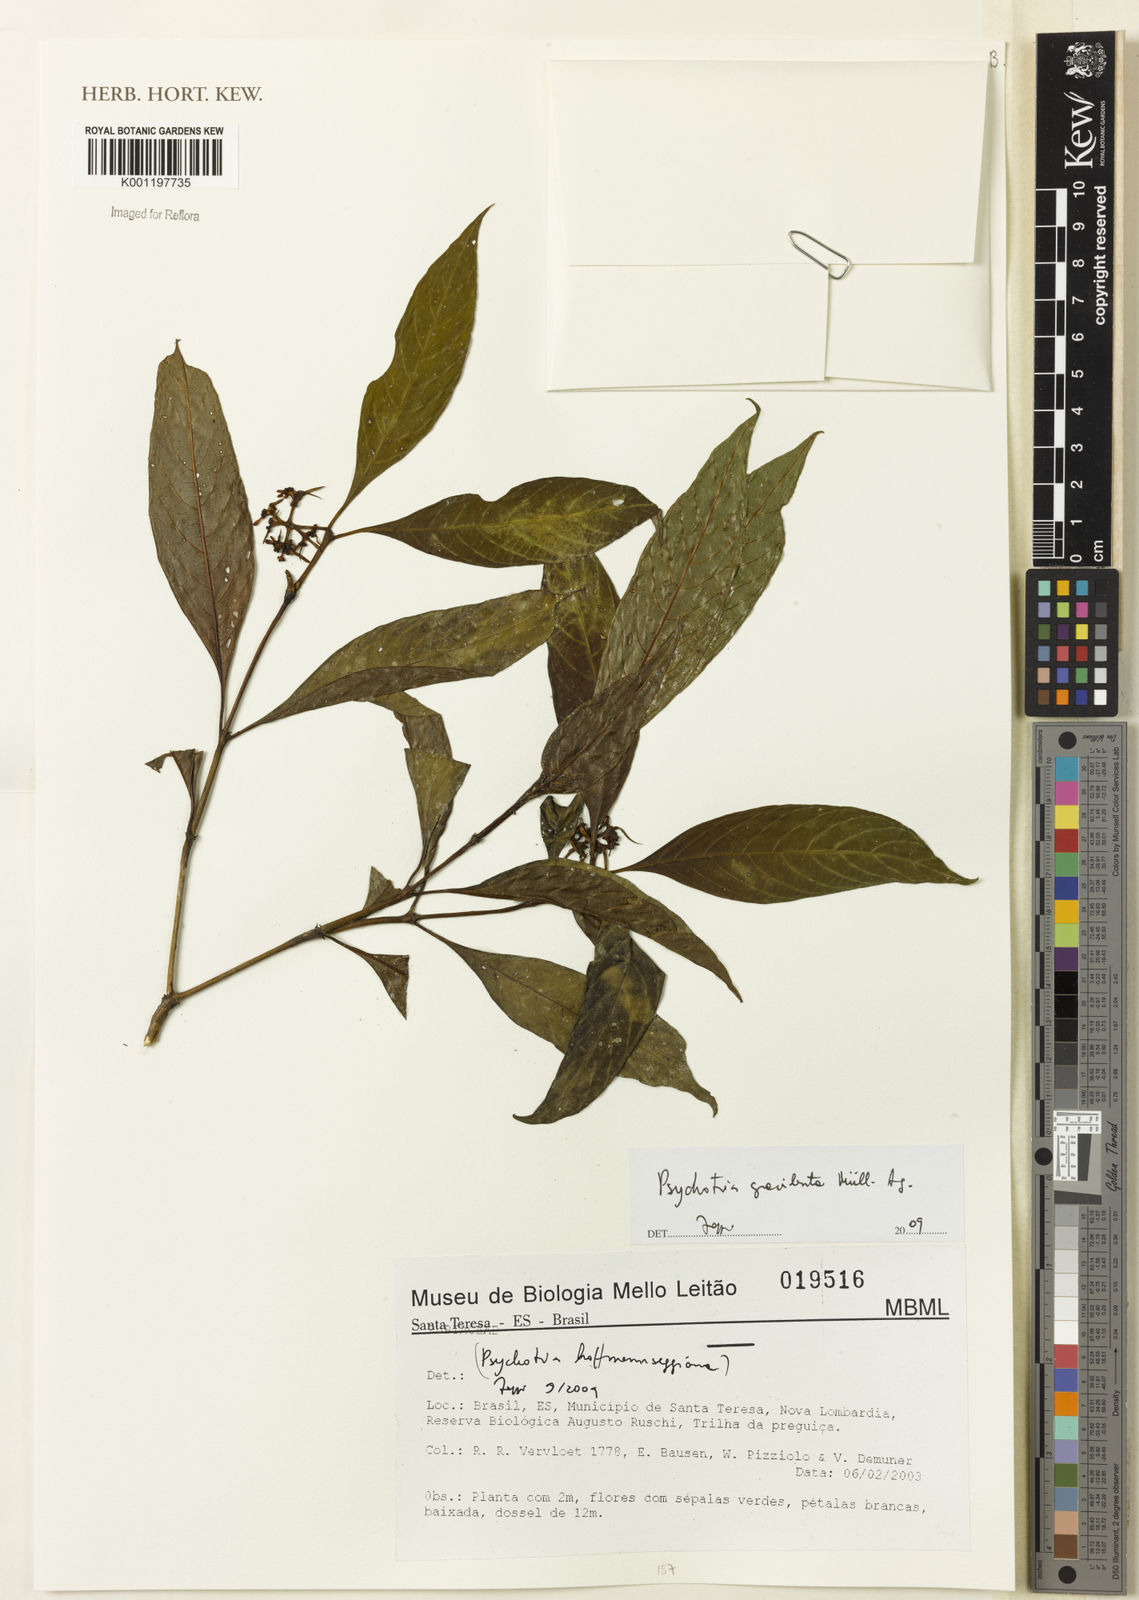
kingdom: Plantae
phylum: Tracheophyta
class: Magnoliopsida
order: Gentianales
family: Rubiaceae
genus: Psychotria
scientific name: Psychotria
